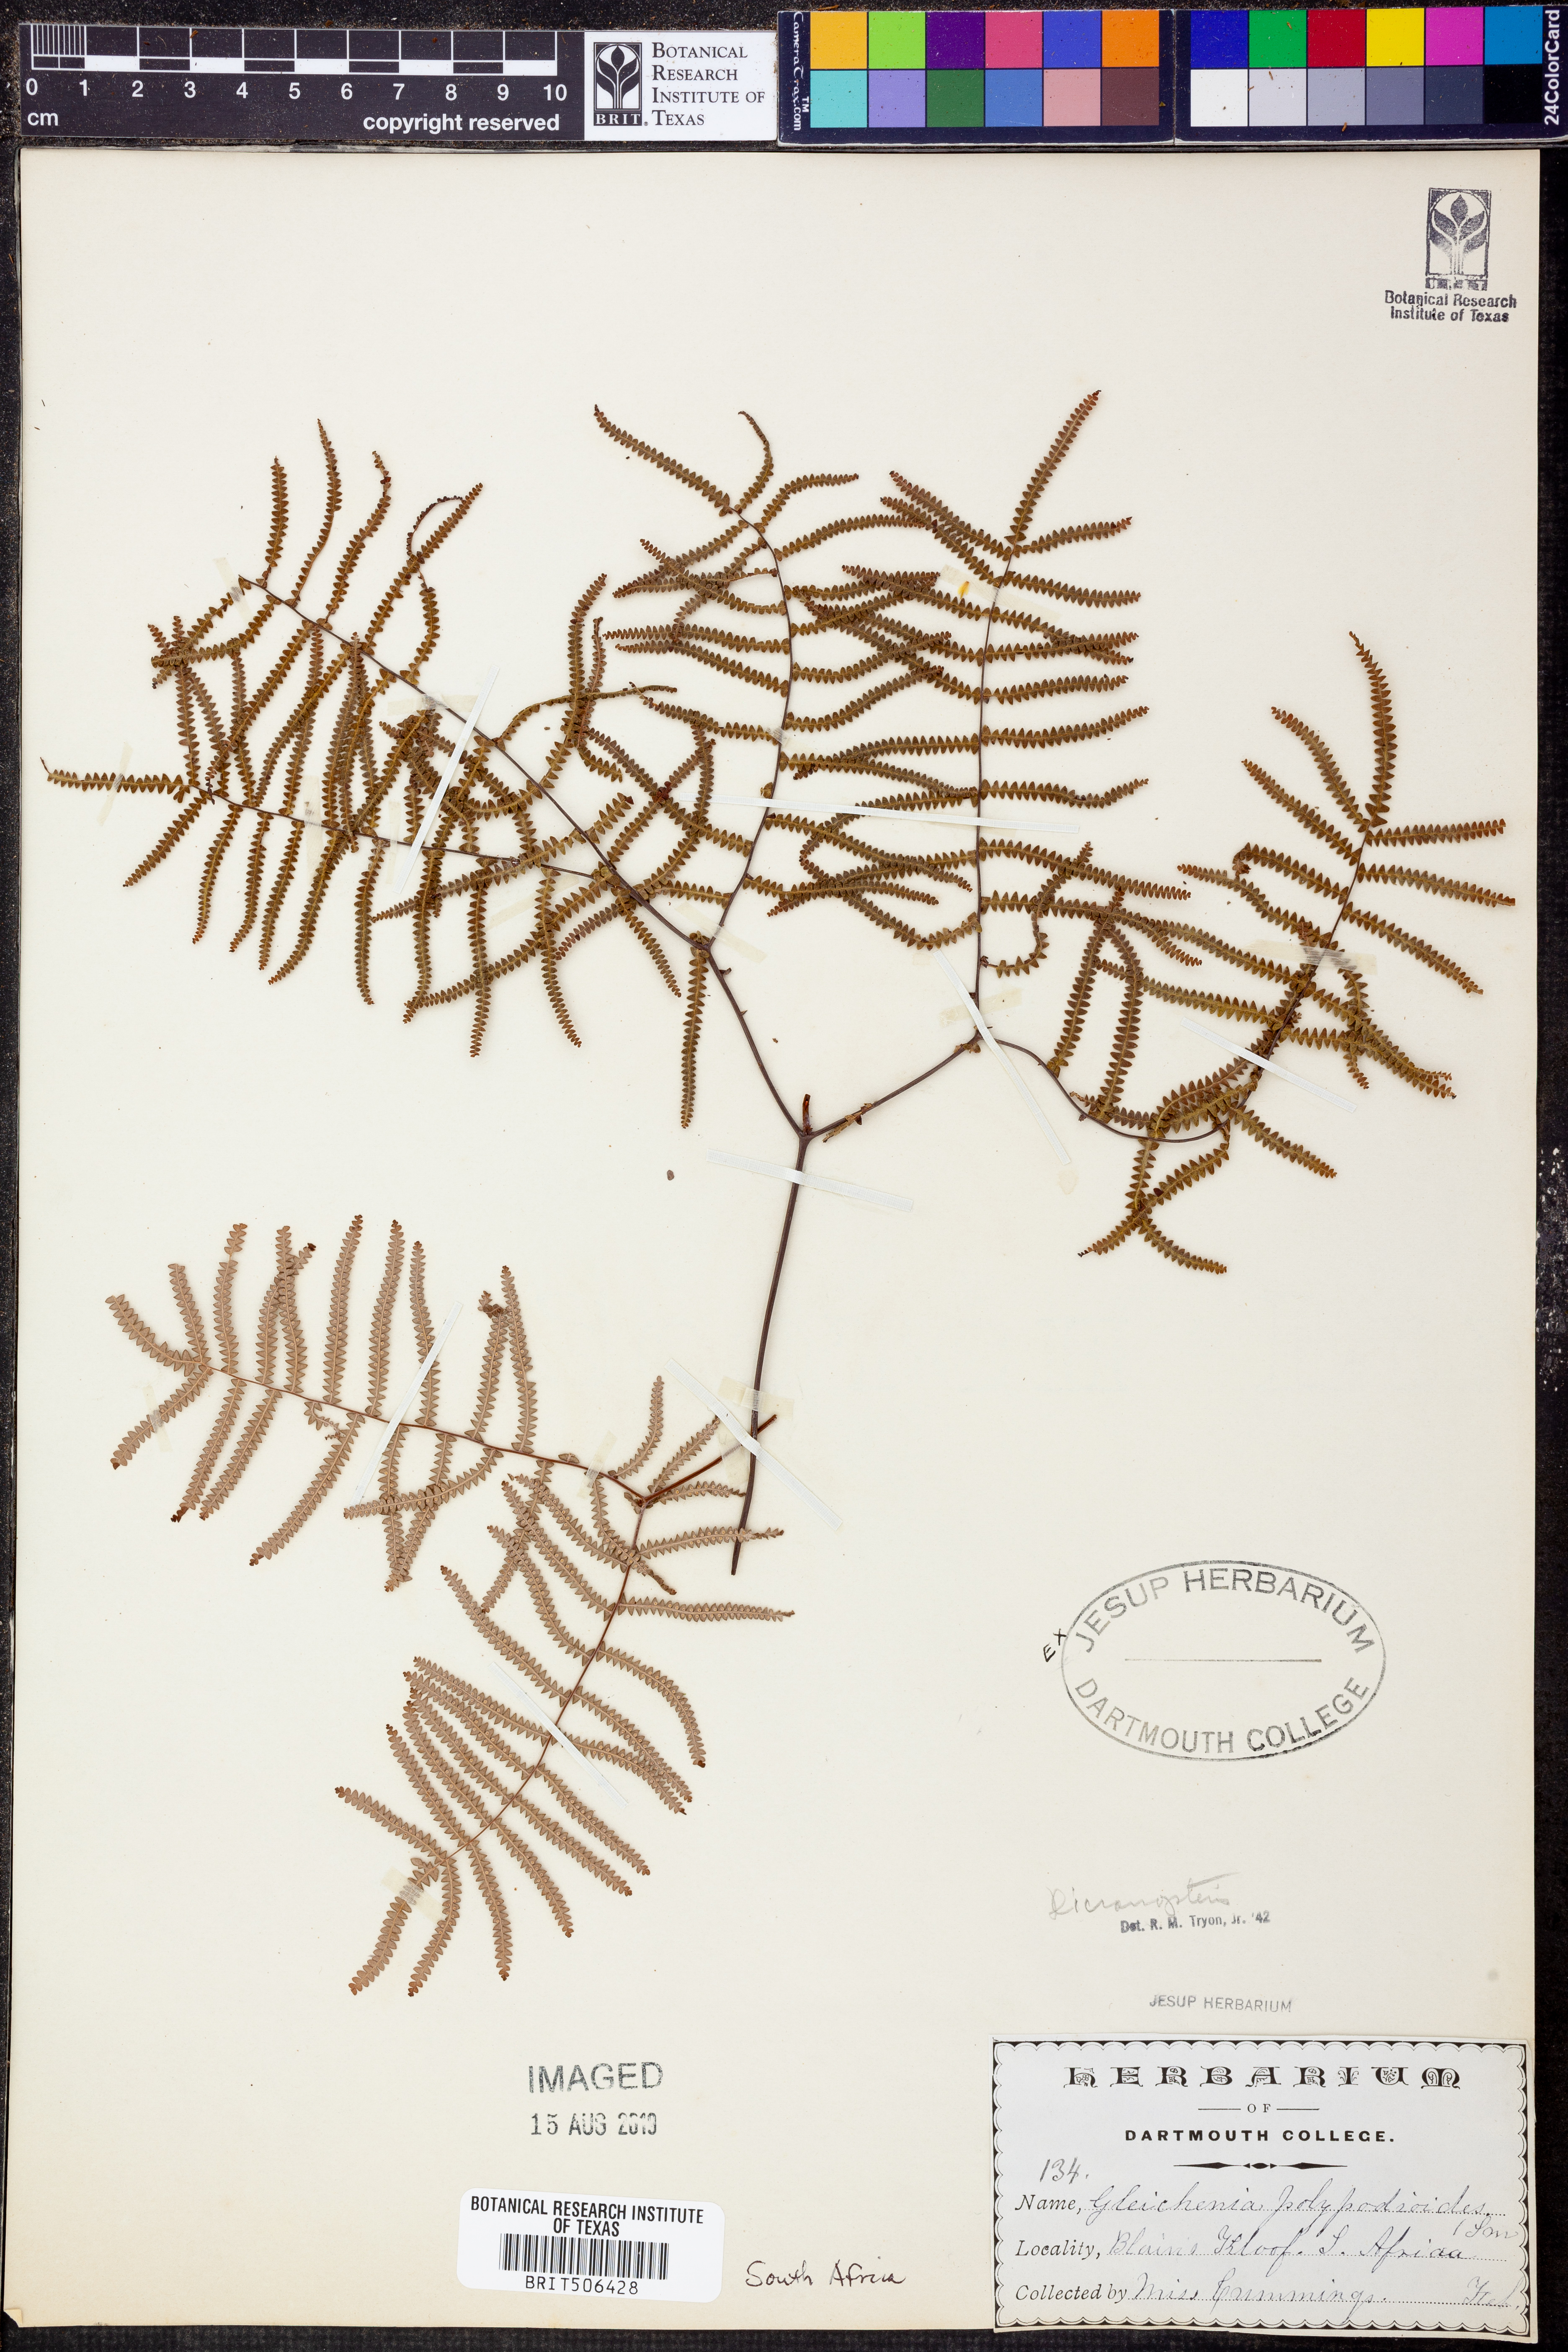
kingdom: Plantae
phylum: Tracheophyta
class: Polypodiopsida
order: Gleicheniales
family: Gleicheniaceae
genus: Dicranopteris
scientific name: Dicranopteris
